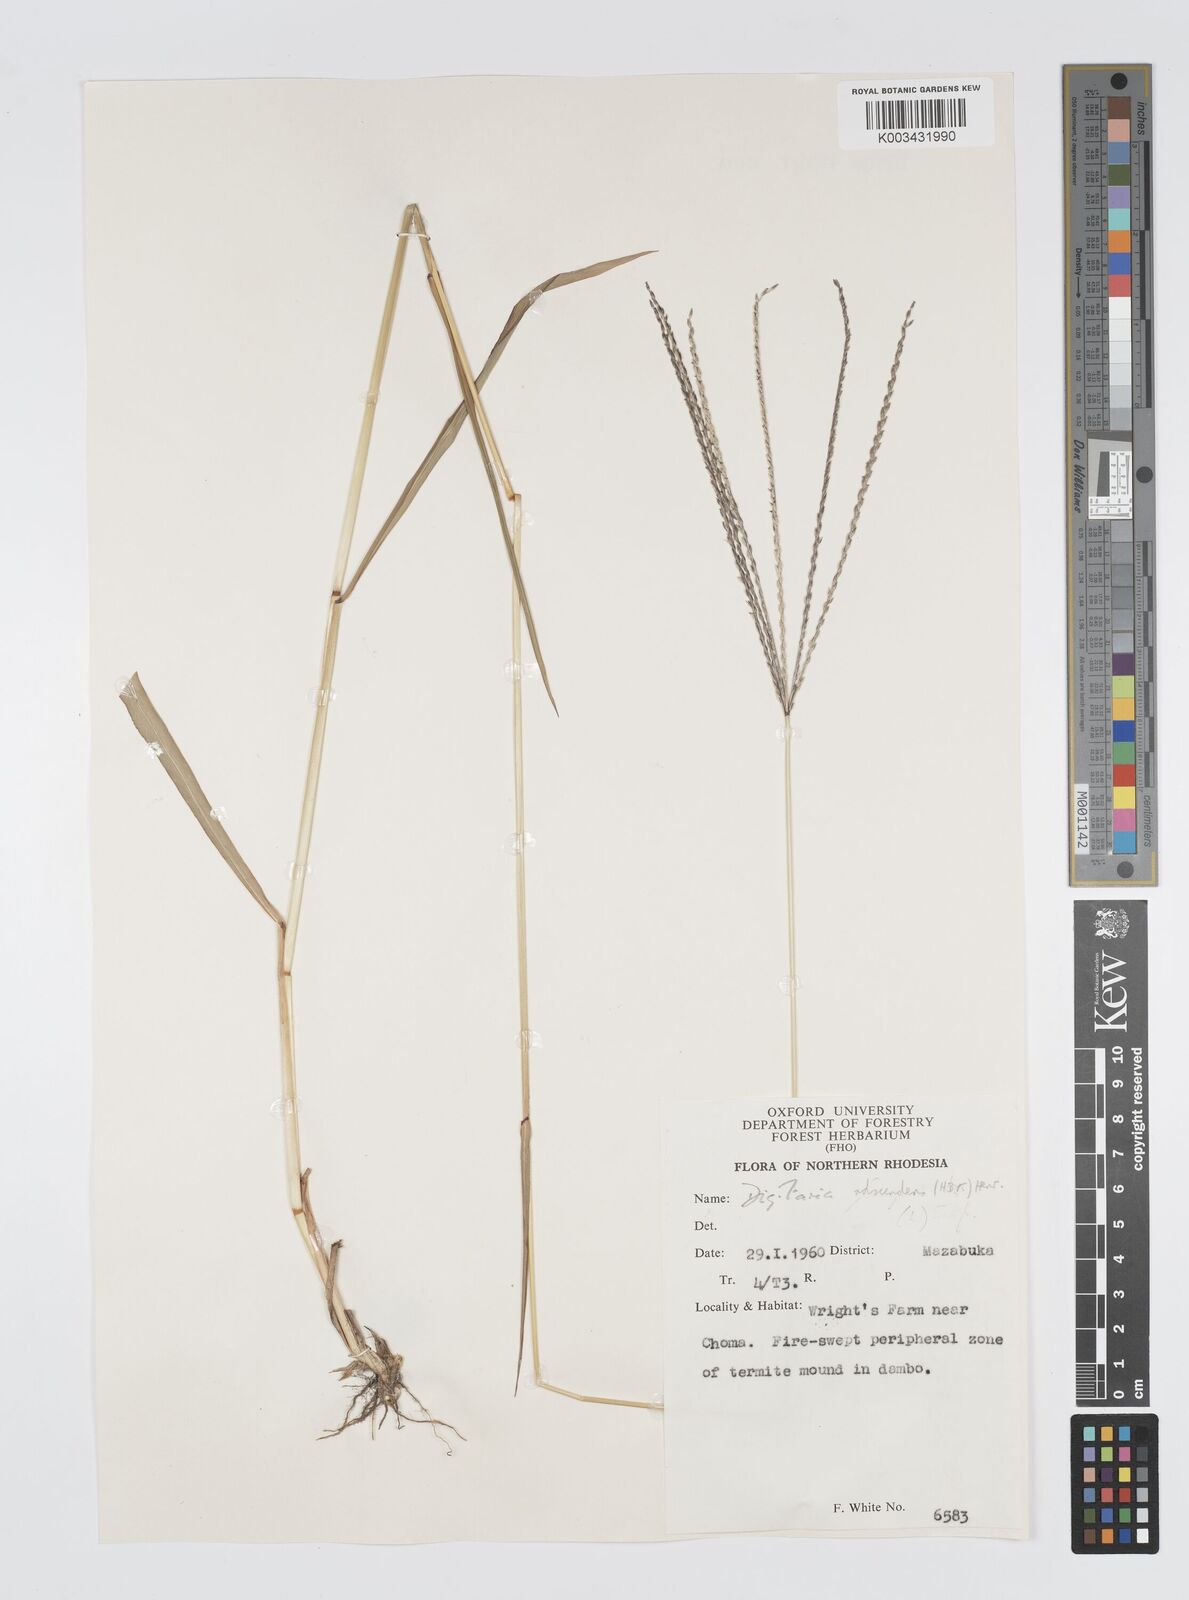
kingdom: Plantae
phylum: Tracheophyta
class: Liliopsida
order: Poales
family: Poaceae
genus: Digitaria
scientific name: Digitaria milanjiana
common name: Madagascar crabgrass
